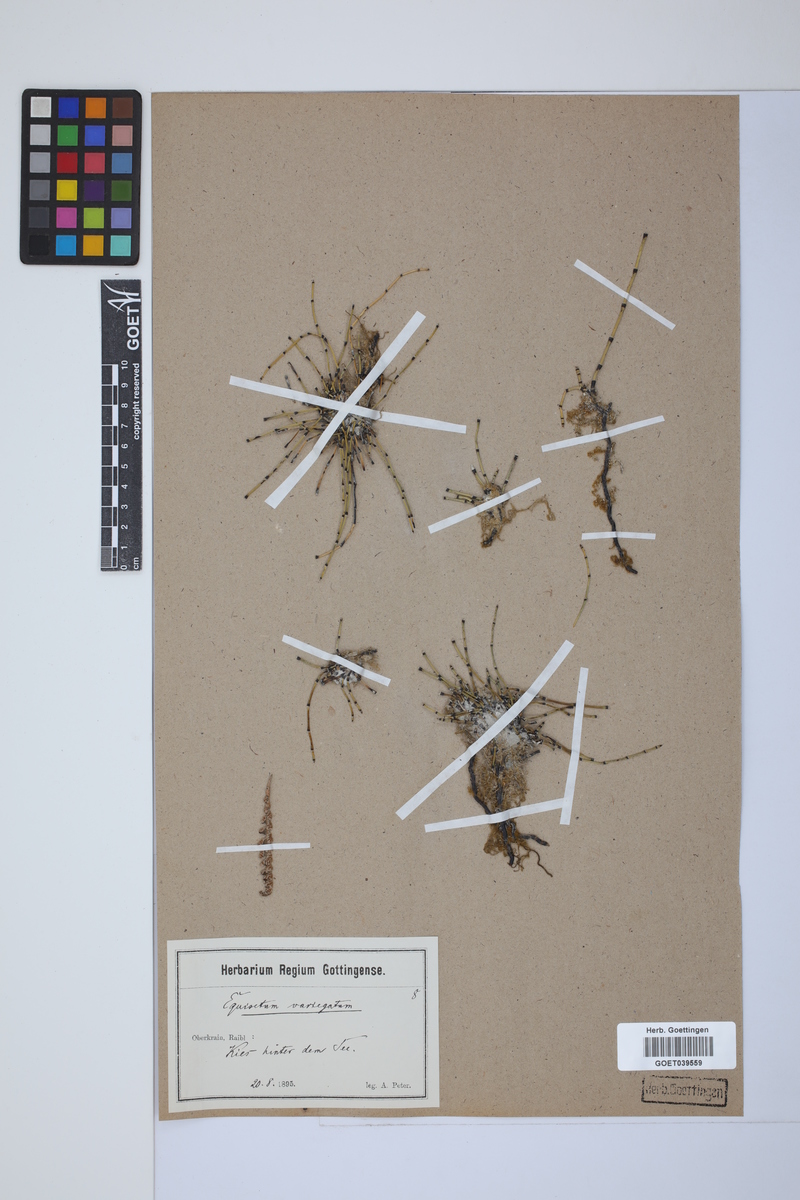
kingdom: Plantae
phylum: Tracheophyta
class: Polypodiopsida
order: Equisetales
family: Equisetaceae
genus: Equisetum
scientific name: Equisetum variegatum
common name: Variegated horsetail
